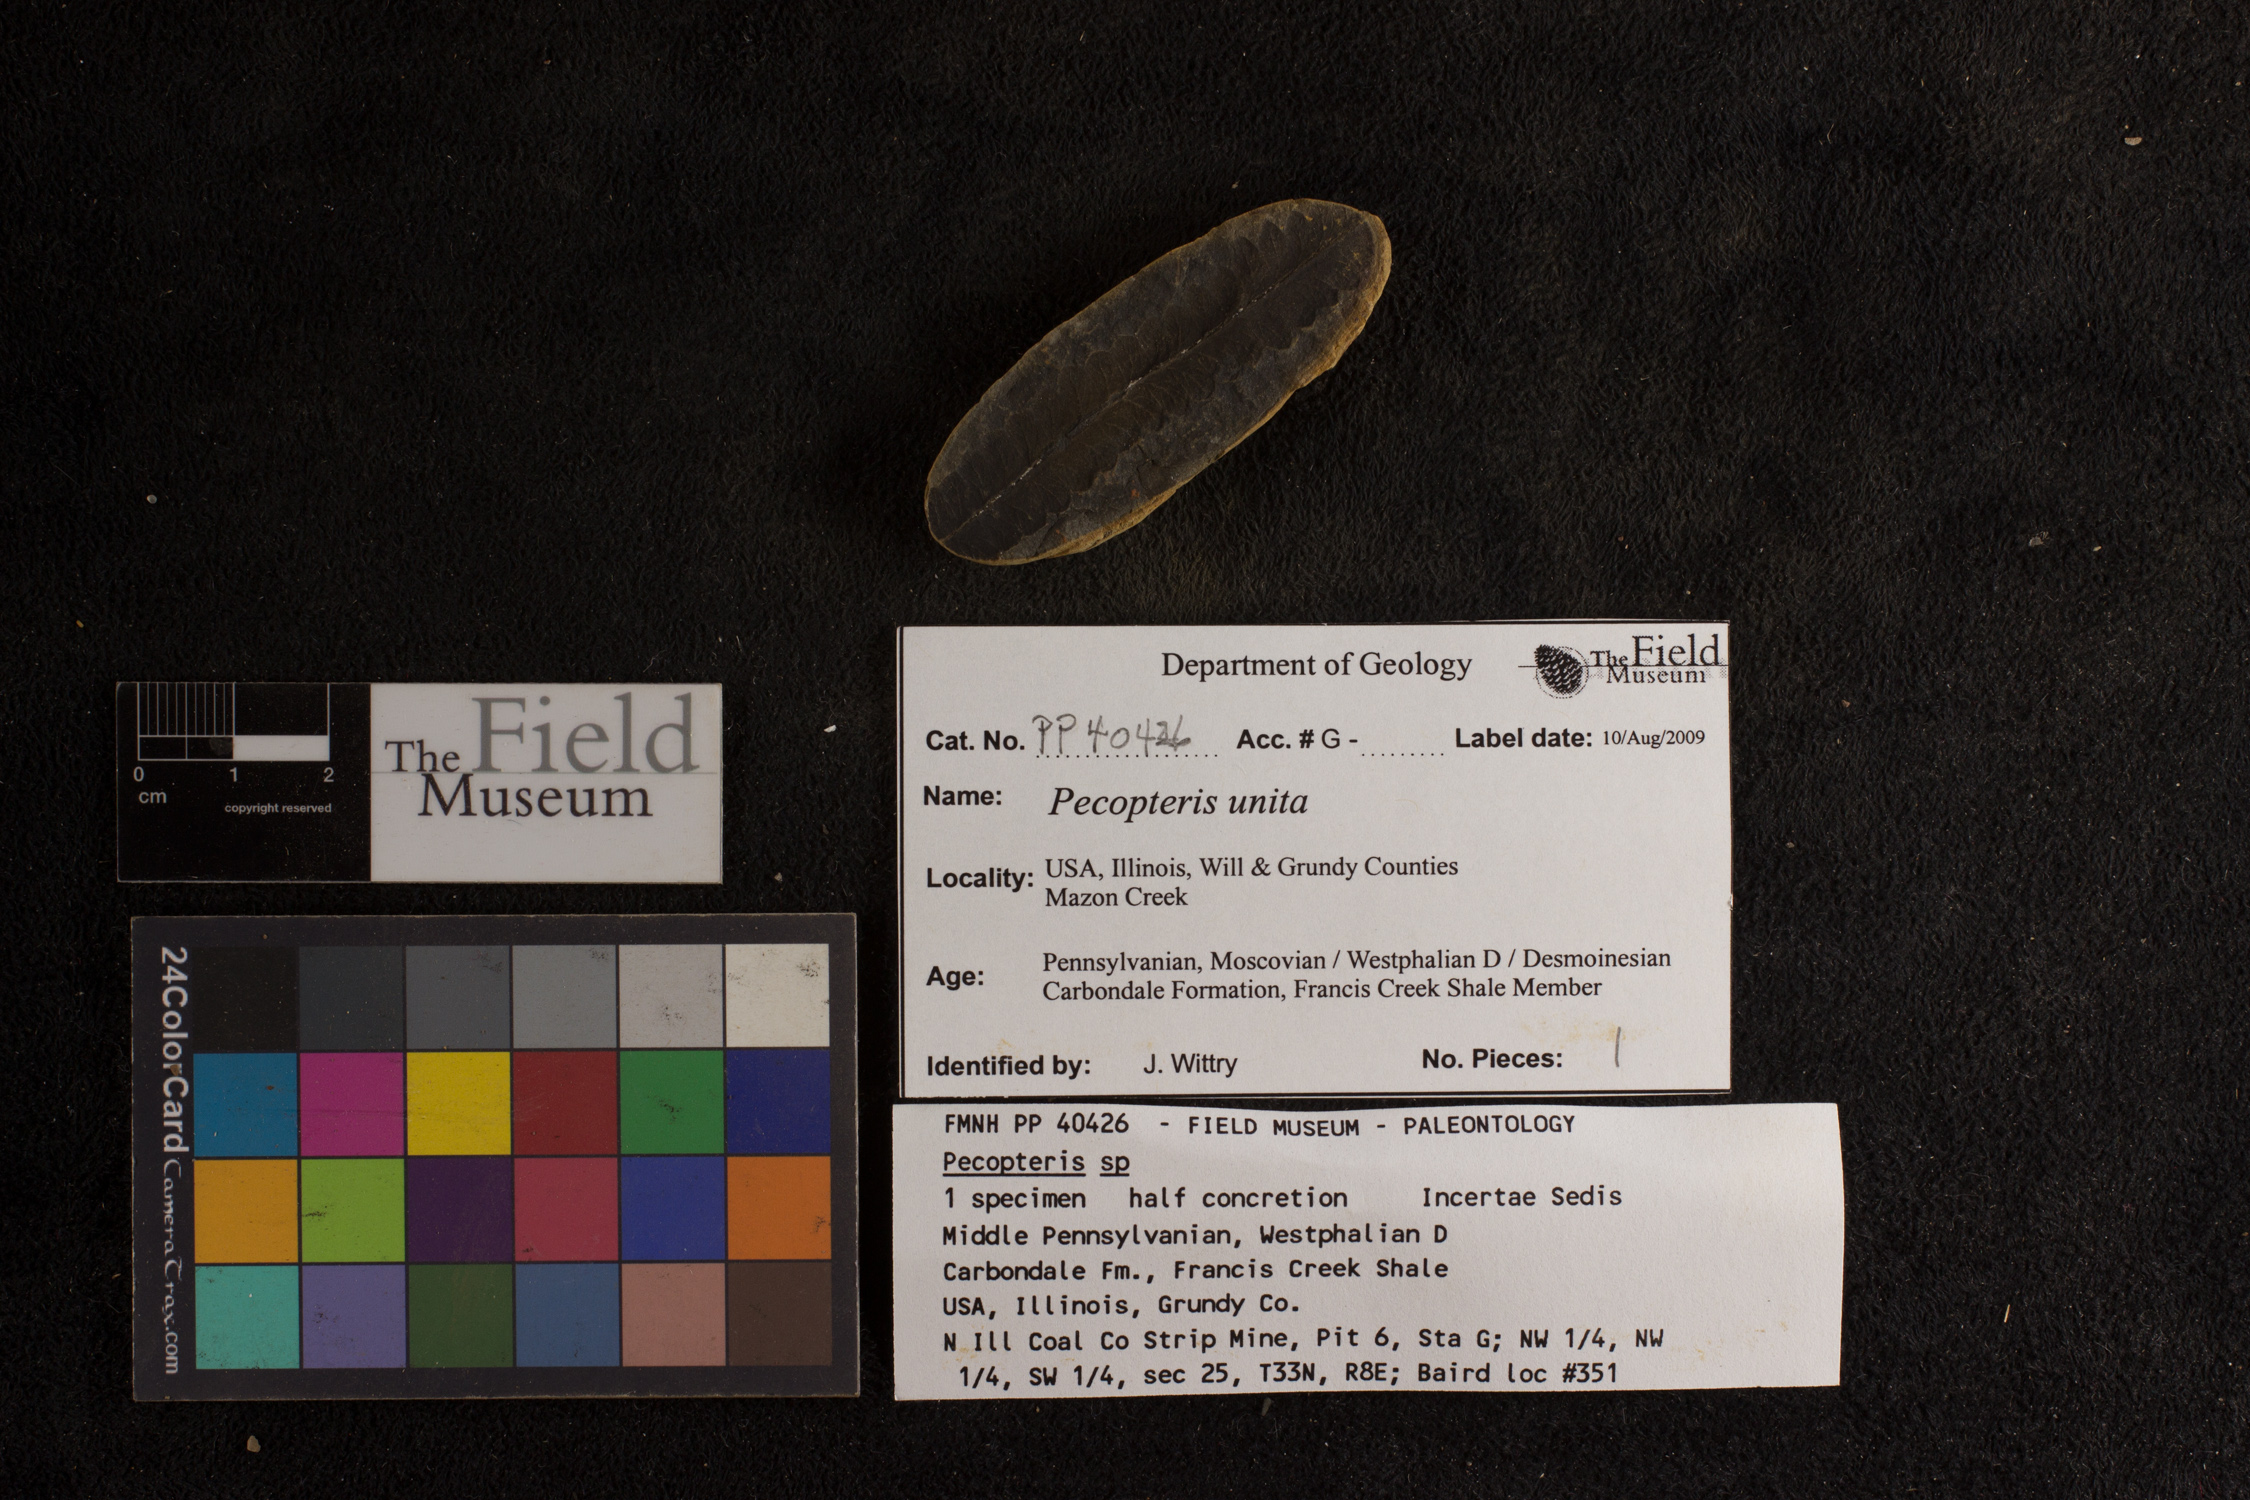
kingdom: Plantae
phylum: Tracheophyta
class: Polypodiopsida
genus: Diplazites
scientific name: Diplazites
